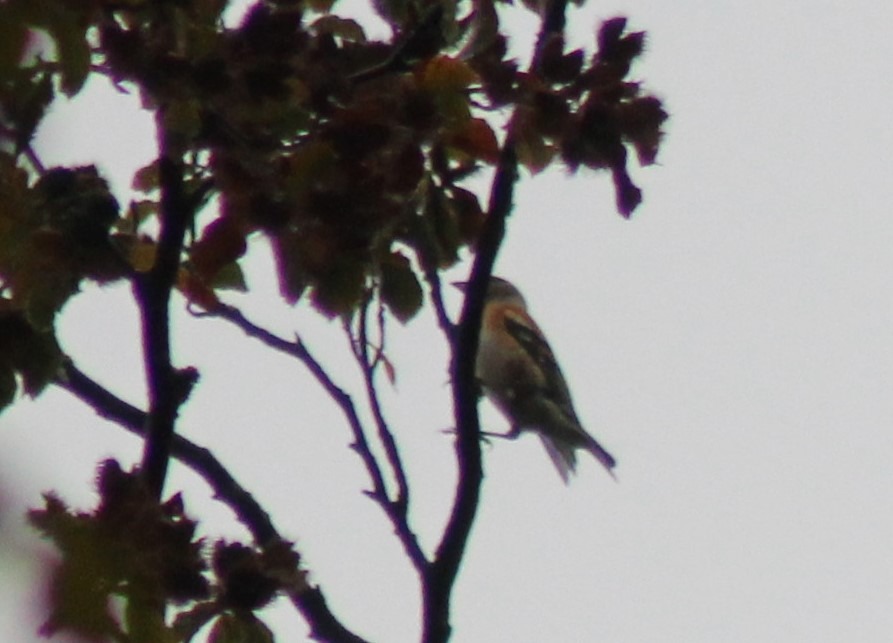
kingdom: Animalia
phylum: Chordata
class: Aves
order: Passeriformes
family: Fringillidae
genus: Fringilla
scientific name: Fringilla montifringilla
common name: Kvækerfinke
